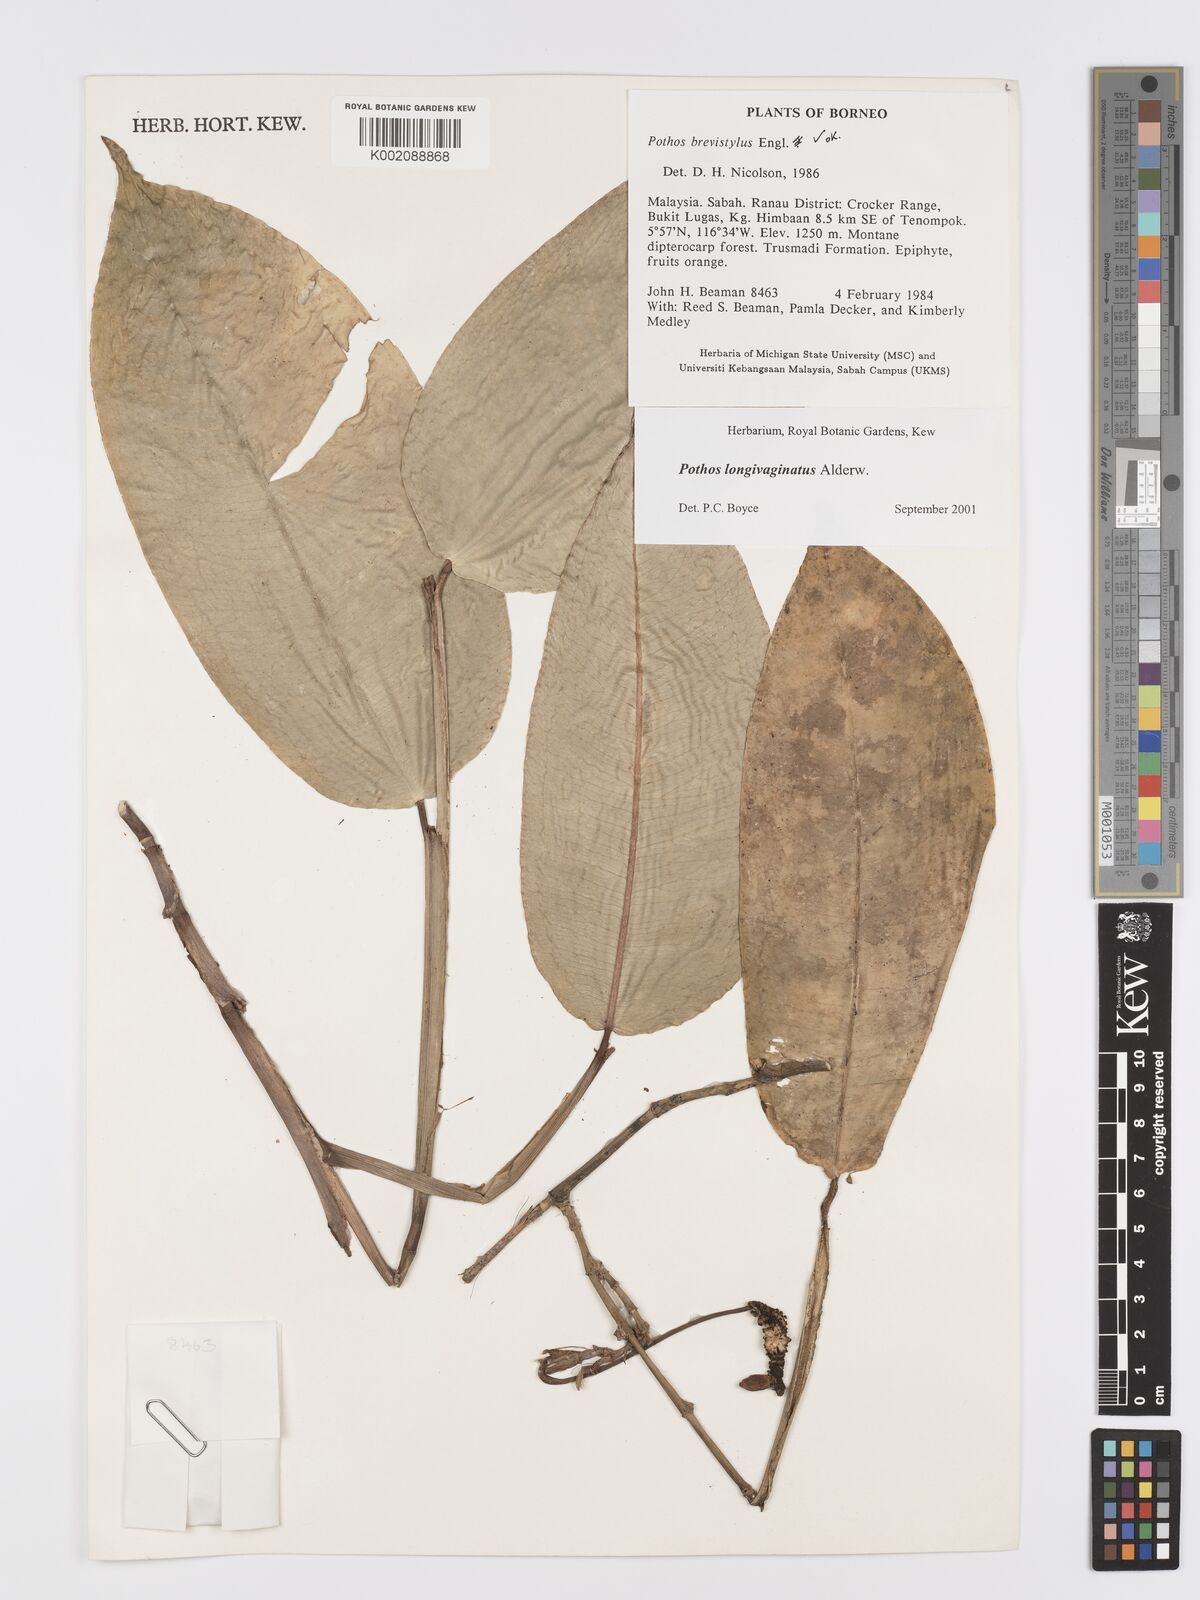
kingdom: Plantae
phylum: Tracheophyta
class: Liliopsida
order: Alismatales
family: Araceae
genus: Pothos
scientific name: Pothos longivaginatus
